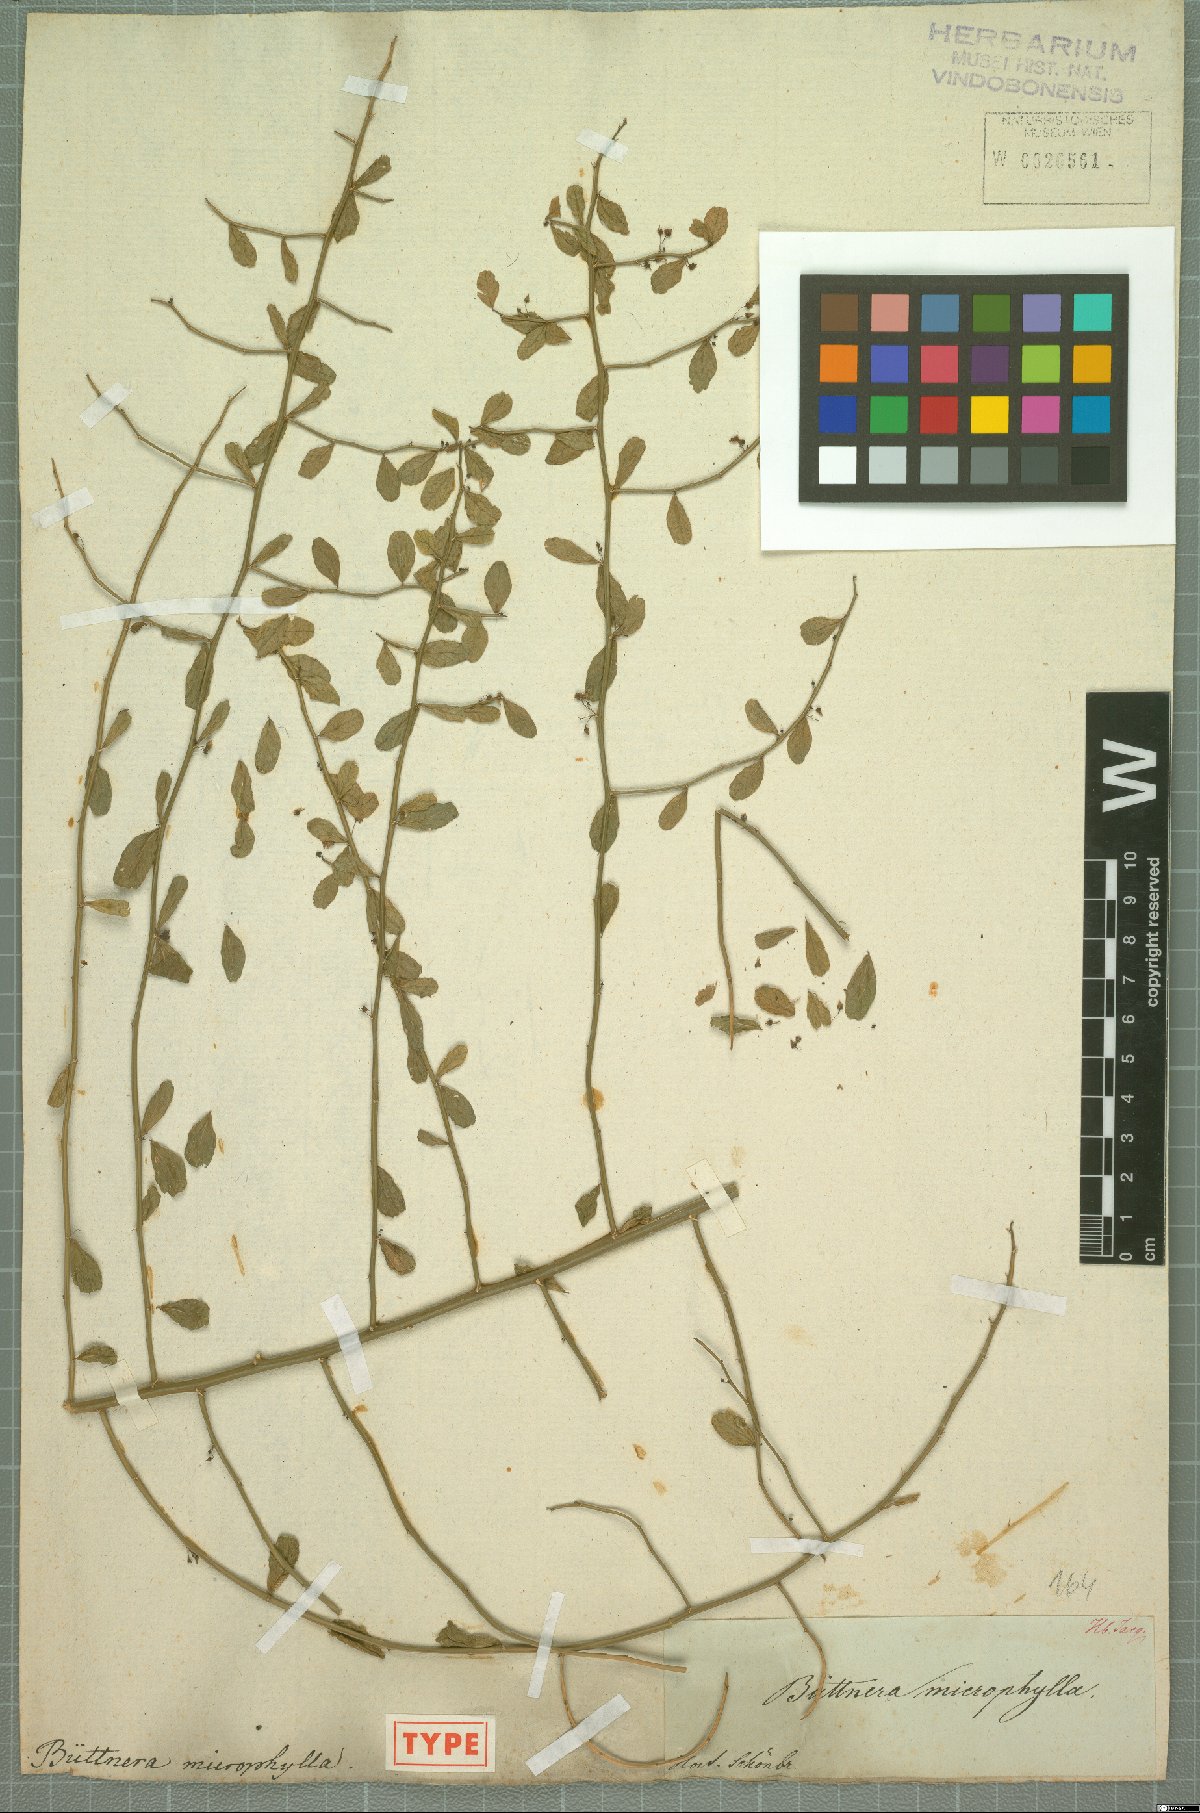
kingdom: Plantae
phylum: Tracheophyta
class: Magnoliopsida
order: Malvales
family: Malvaceae
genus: Byttneria
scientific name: Byttneria microphylla
